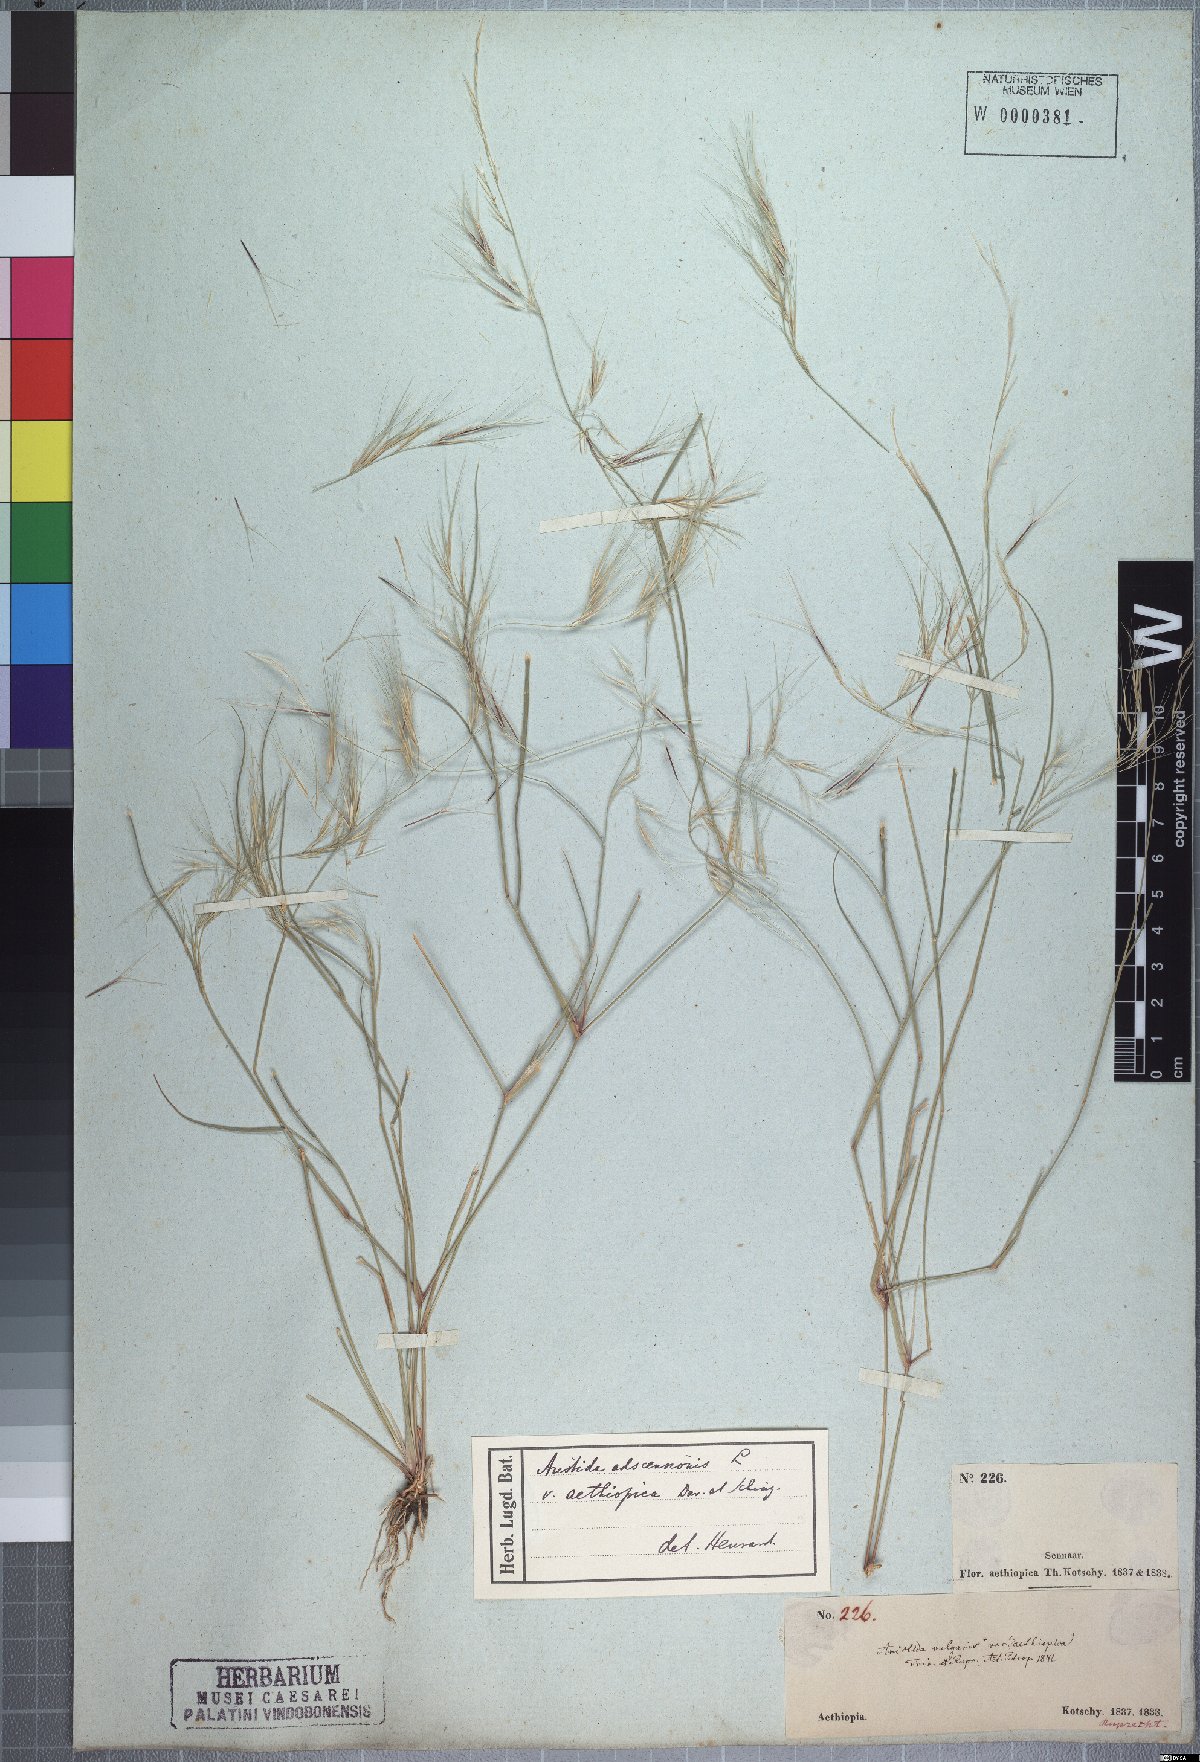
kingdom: Plantae
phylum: Tracheophyta
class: Liliopsida
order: Poales
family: Poaceae
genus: Aristida
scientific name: Aristida adscensionis
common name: Sixweeks threeawn
